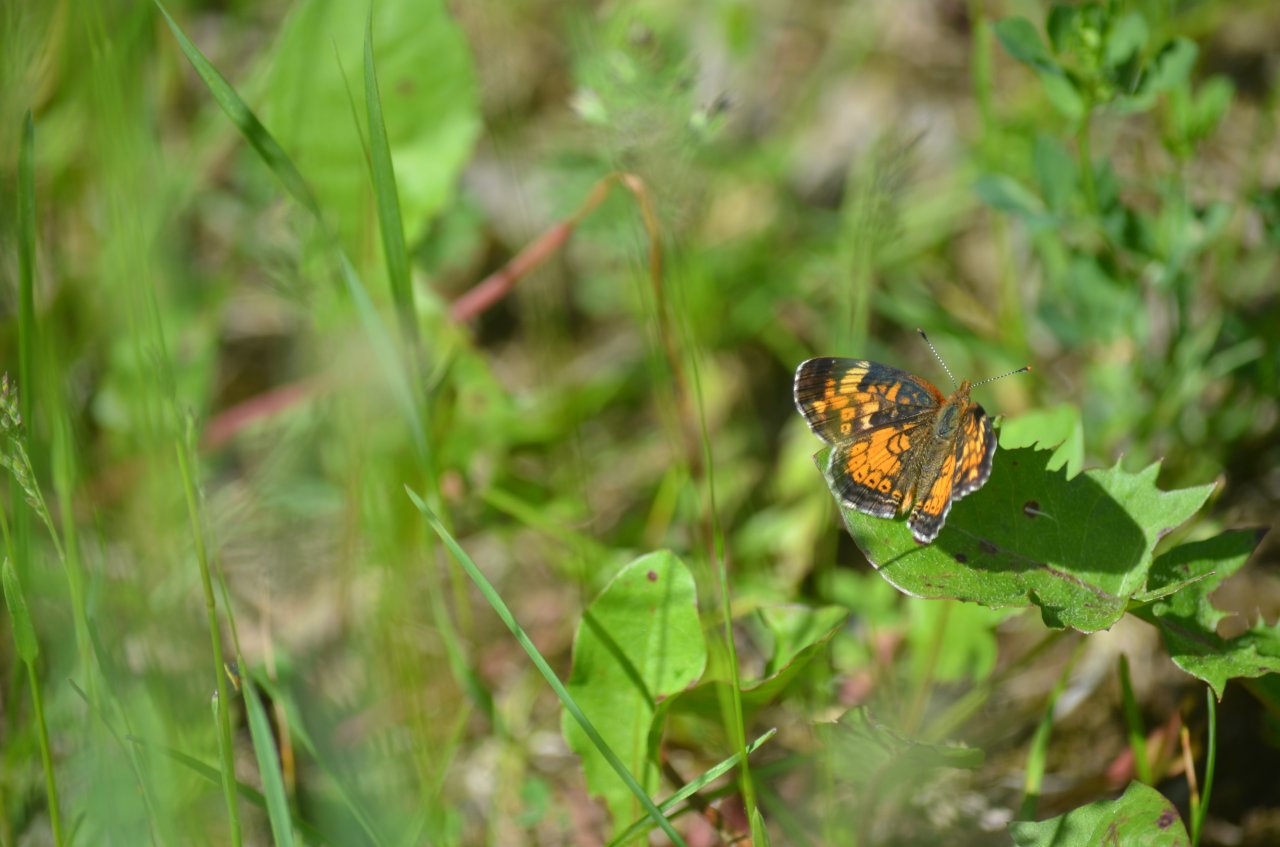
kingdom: Animalia
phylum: Arthropoda
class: Insecta
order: Lepidoptera
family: Nymphalidae
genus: Phyciodes
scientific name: Phyciodes tharos
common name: Northern Crescent
